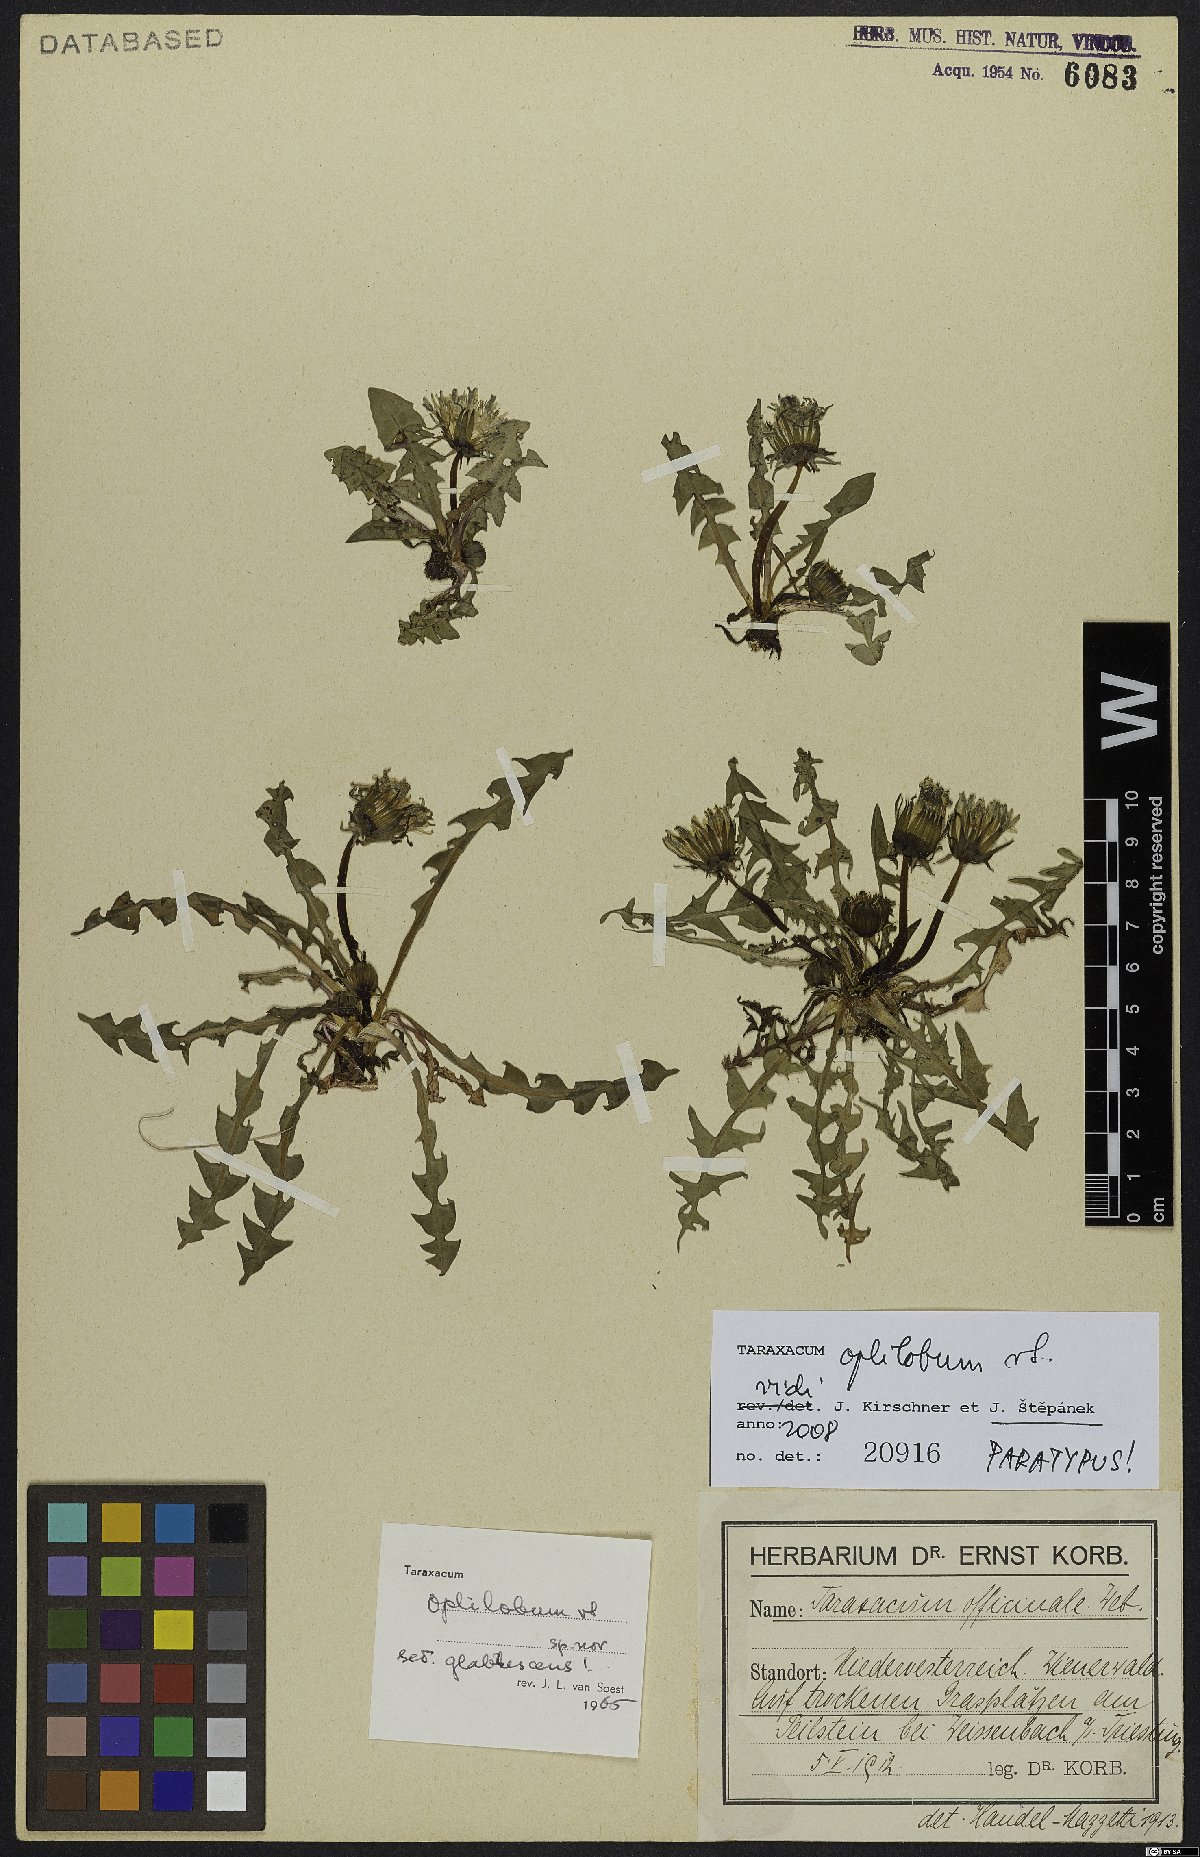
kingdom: Plantae
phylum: Tracheophyta
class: Magnoliopsida
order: Asterales
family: Asteraceae
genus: Taraxacum
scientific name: Taraxacum oplilobum
